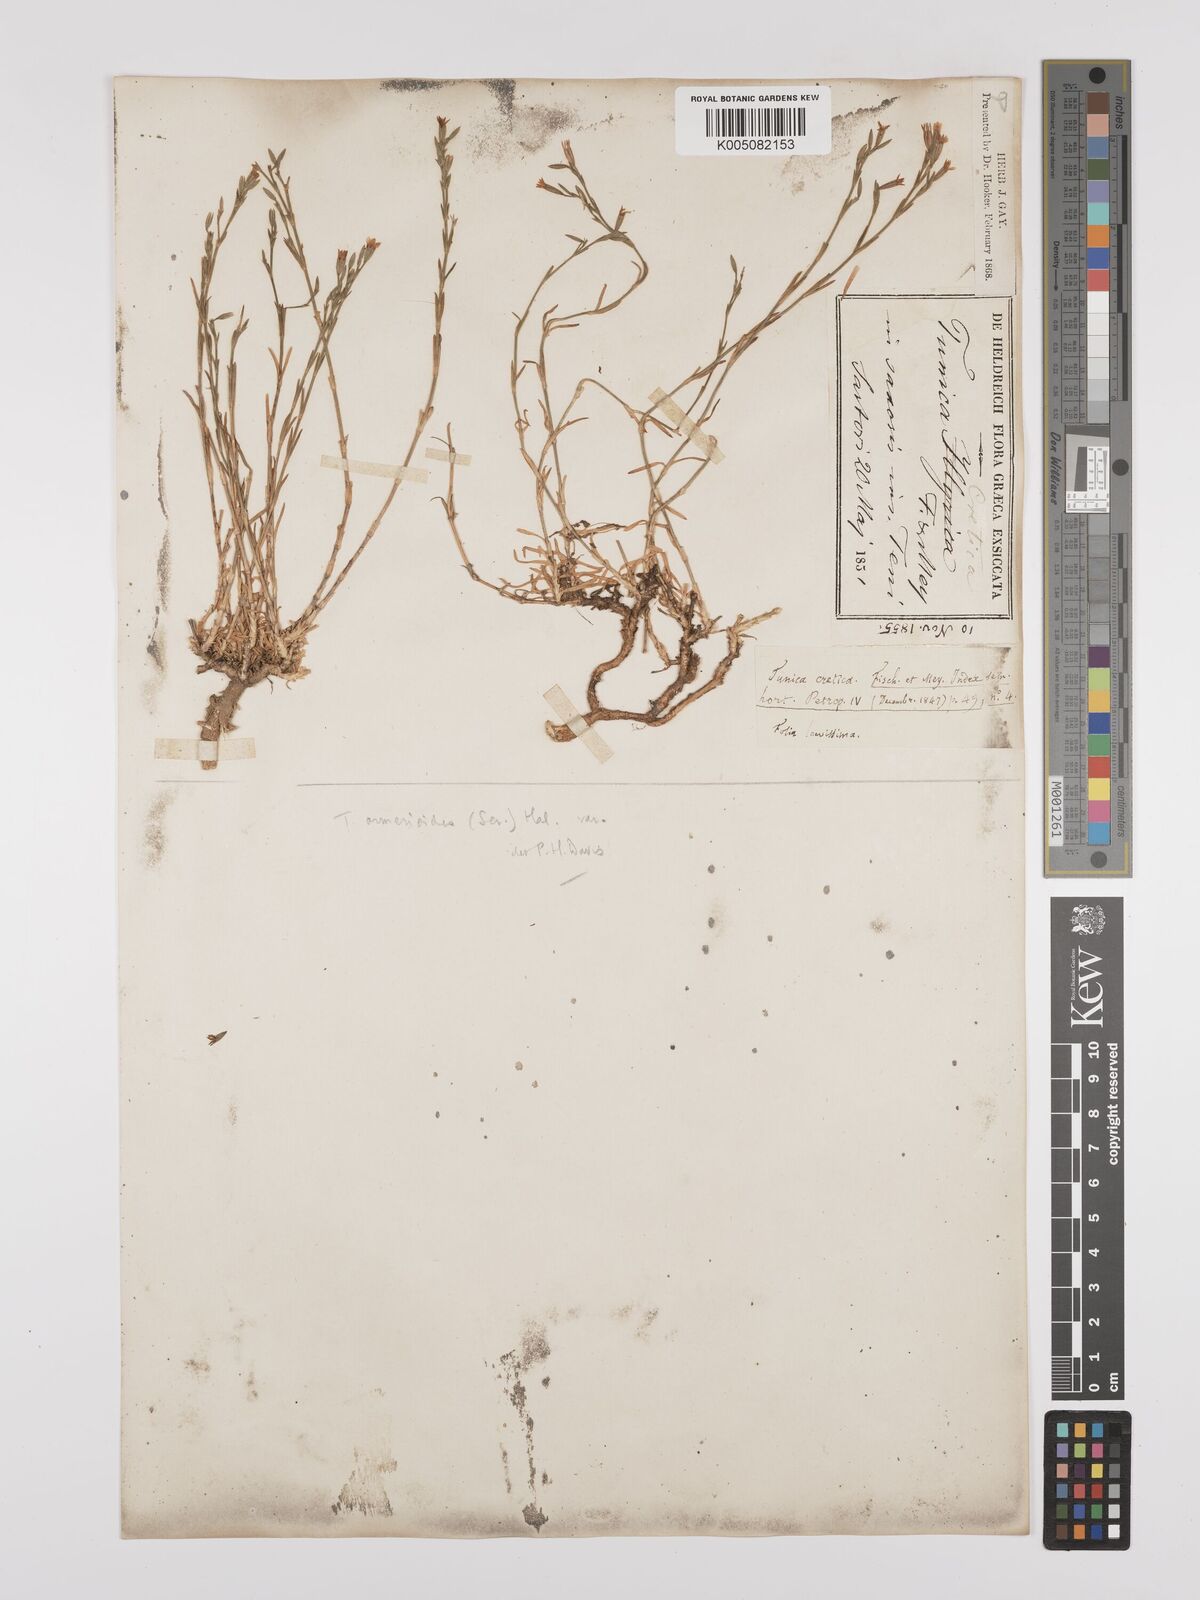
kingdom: Plantae
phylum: Tracheophyta
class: Magnoliopsida
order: Caryophyllales
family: Caryophyllaceae
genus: Dianthus
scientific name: Dianthus tunicoides
